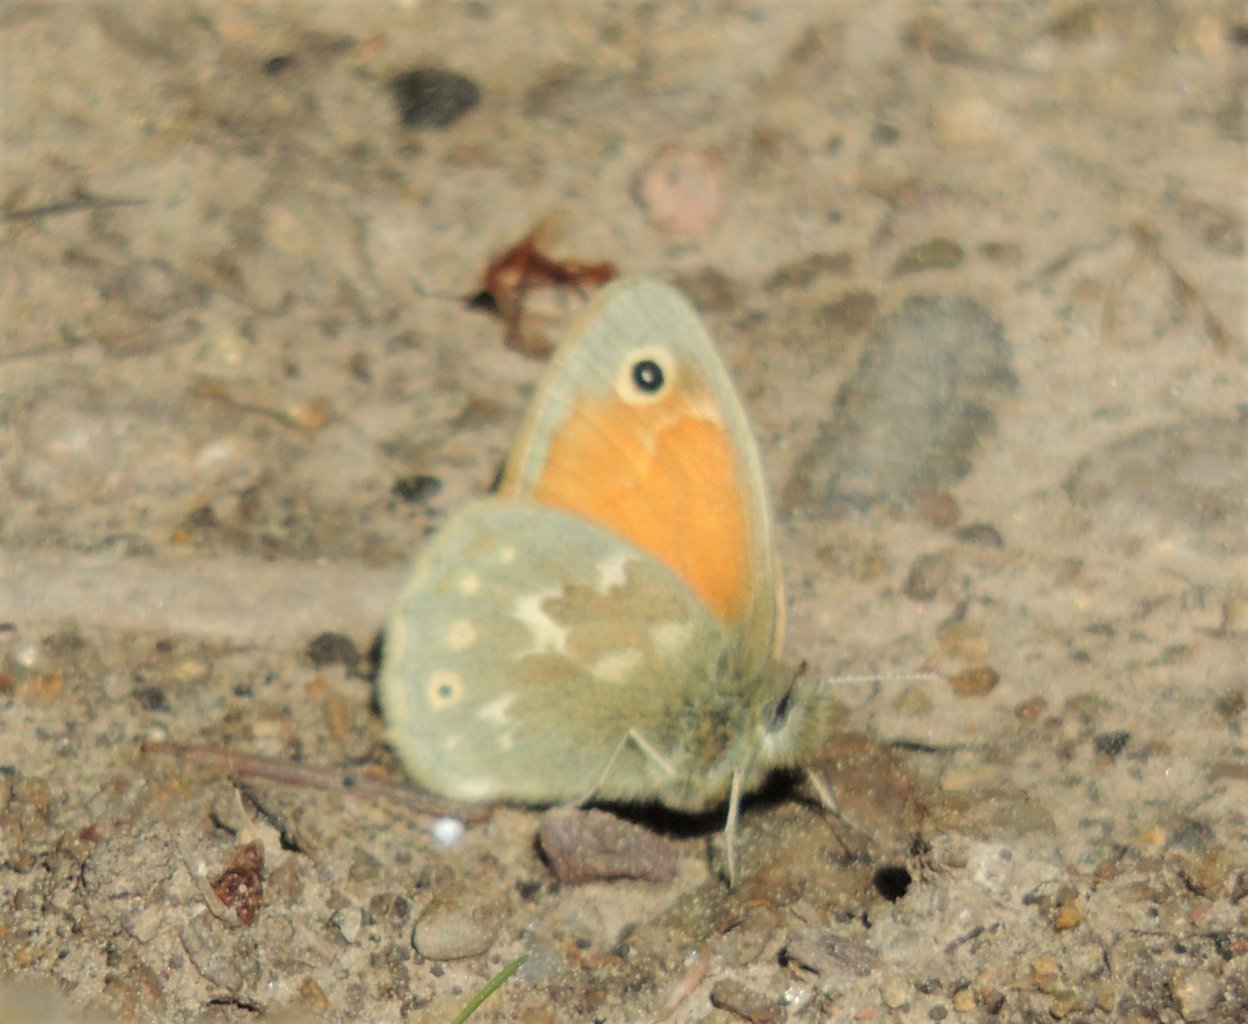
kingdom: Animalia
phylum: Arthropoda
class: Insecta
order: Lepidoptera
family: Nymphalidae
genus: Coenonympha
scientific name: Coenonympha tullia
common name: Large Heath
